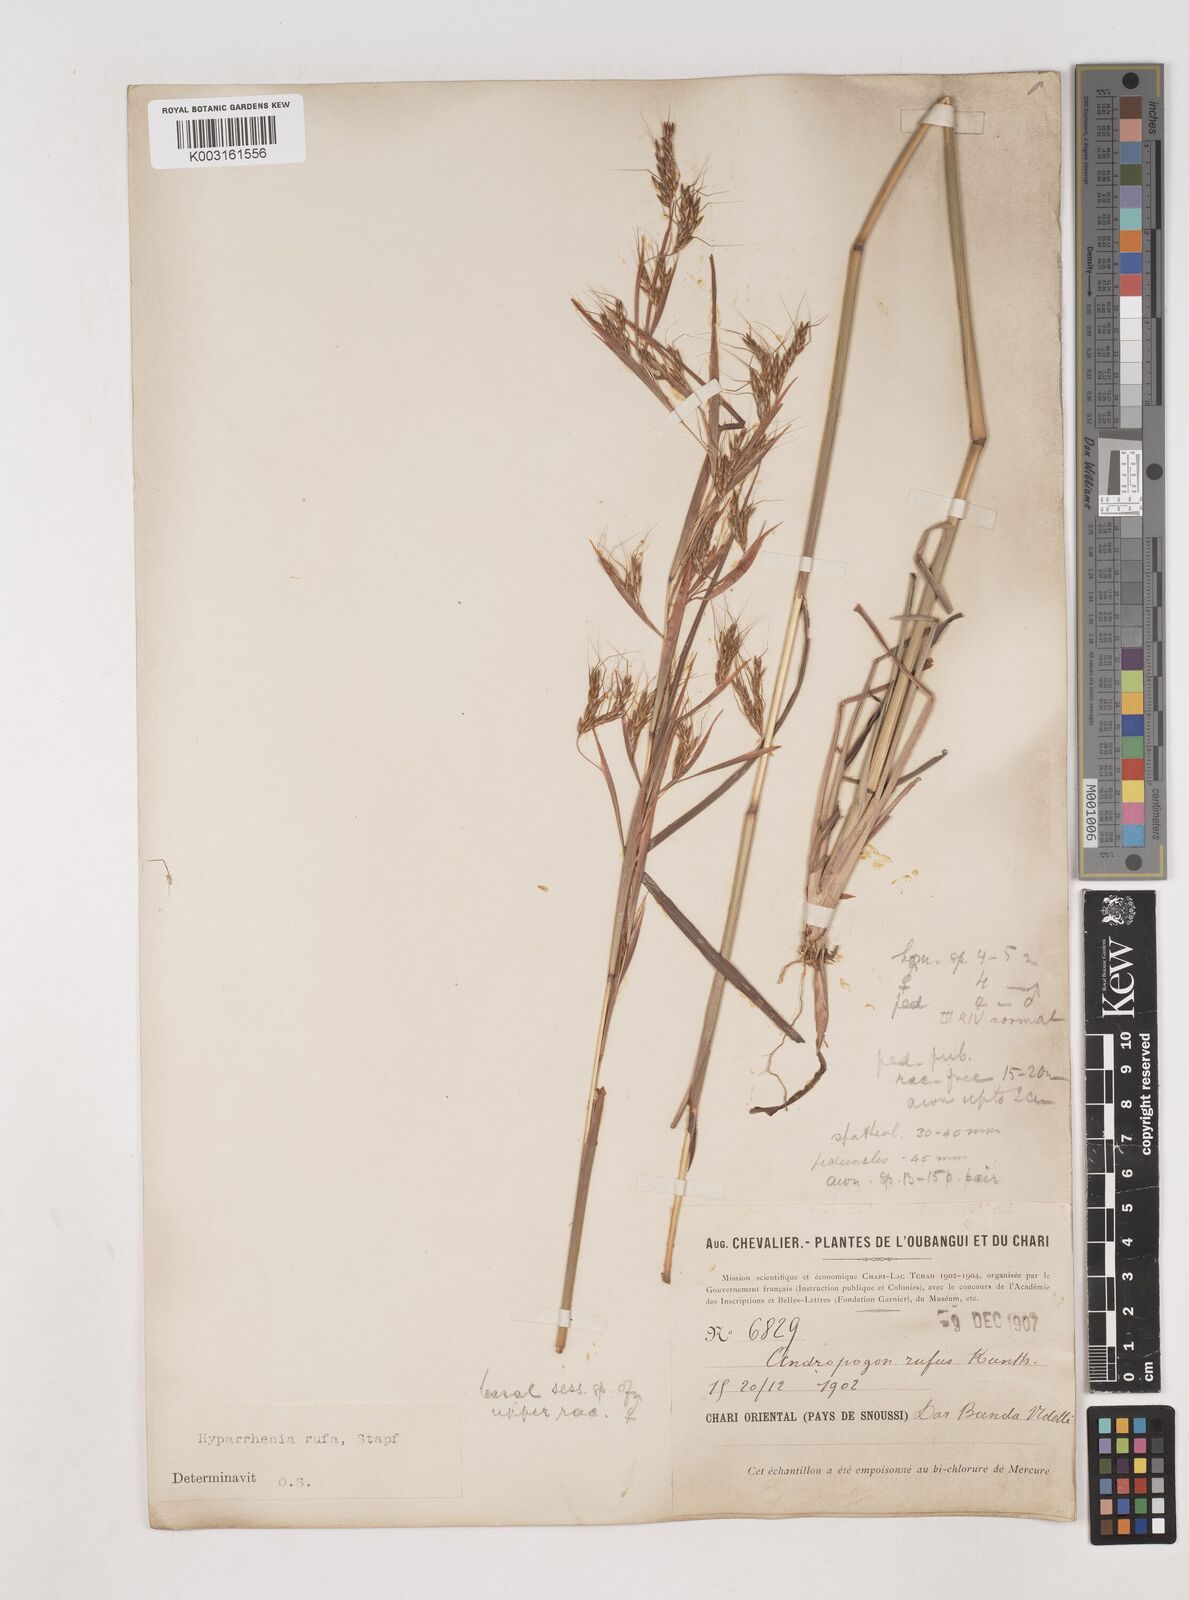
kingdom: Plantae
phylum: Tracheophyta
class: Liliopsida
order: Poales
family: Poaceae
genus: Hyparrhenia
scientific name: Hyparrhenia rufa
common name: Jaraguagrass
